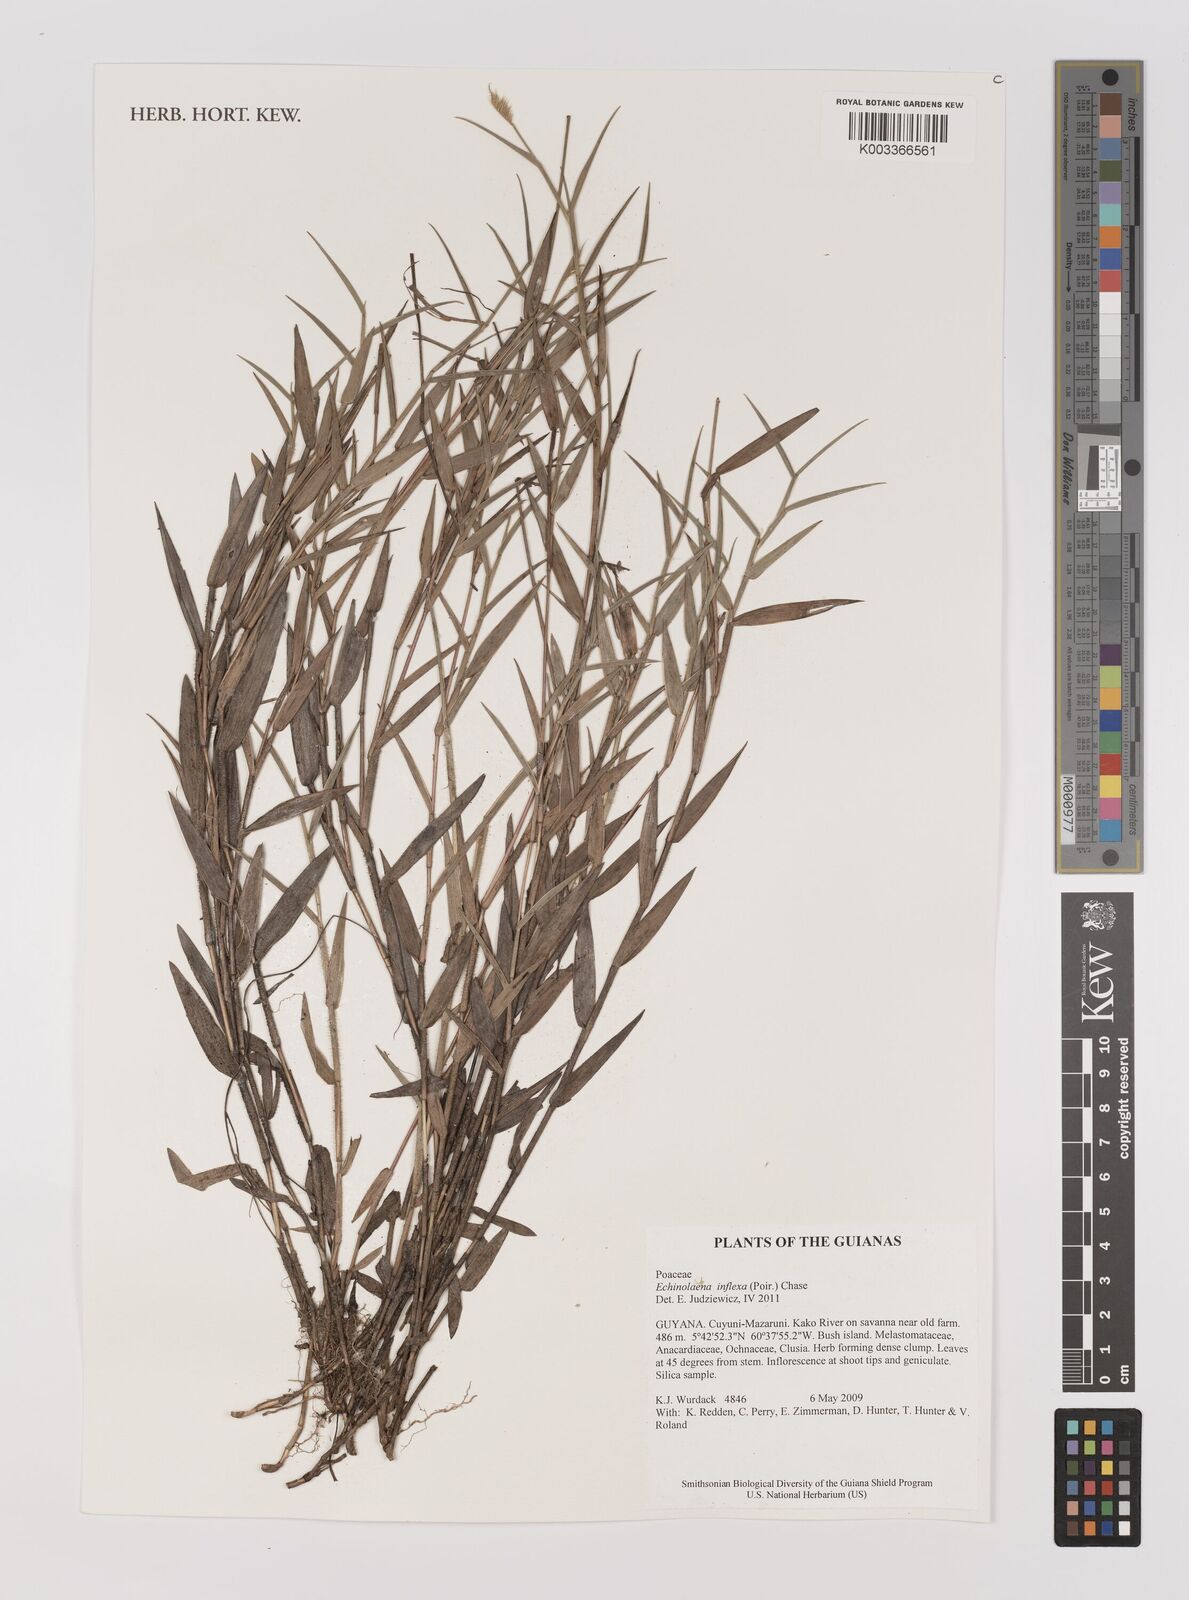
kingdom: Plantae
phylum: Tracheophyta
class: Liliopsida
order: Poales
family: Poaceae
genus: Echinolaena
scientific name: Echinolaena inflexa
